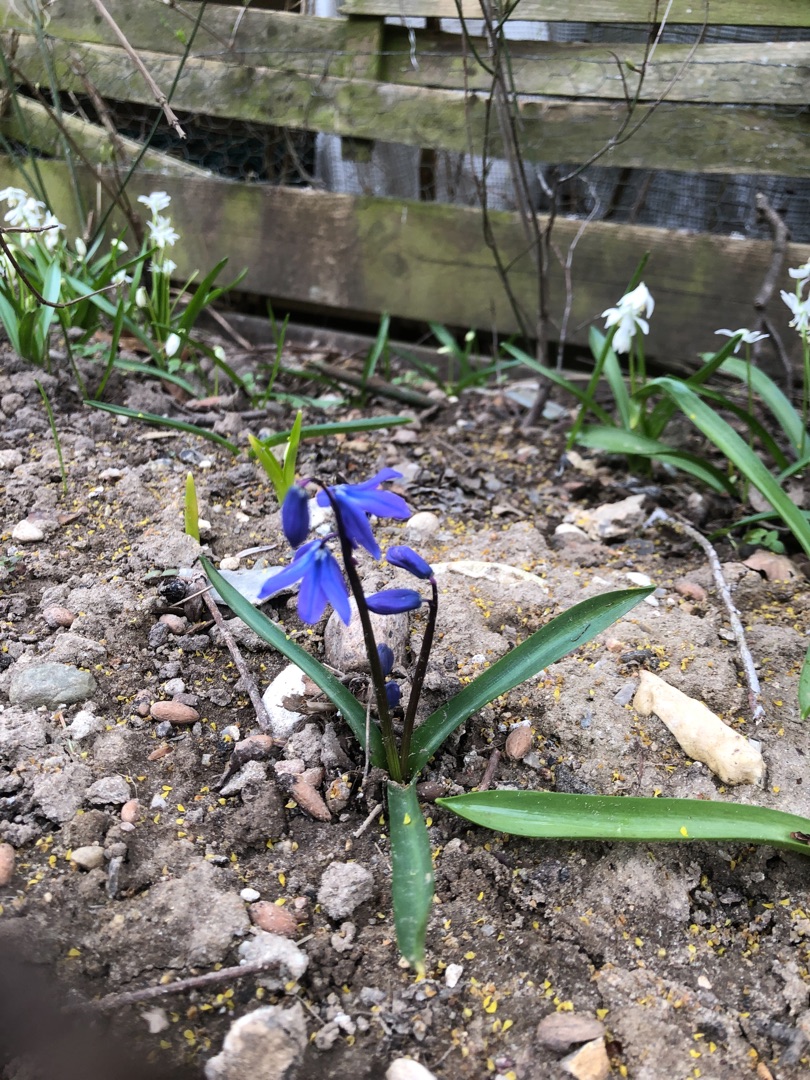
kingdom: Plantae
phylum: Tracheophyta
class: Liliopsida
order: Asparagales
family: Asparagaceae
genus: Scilla
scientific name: Scilla siberica
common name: Russisk skilla
